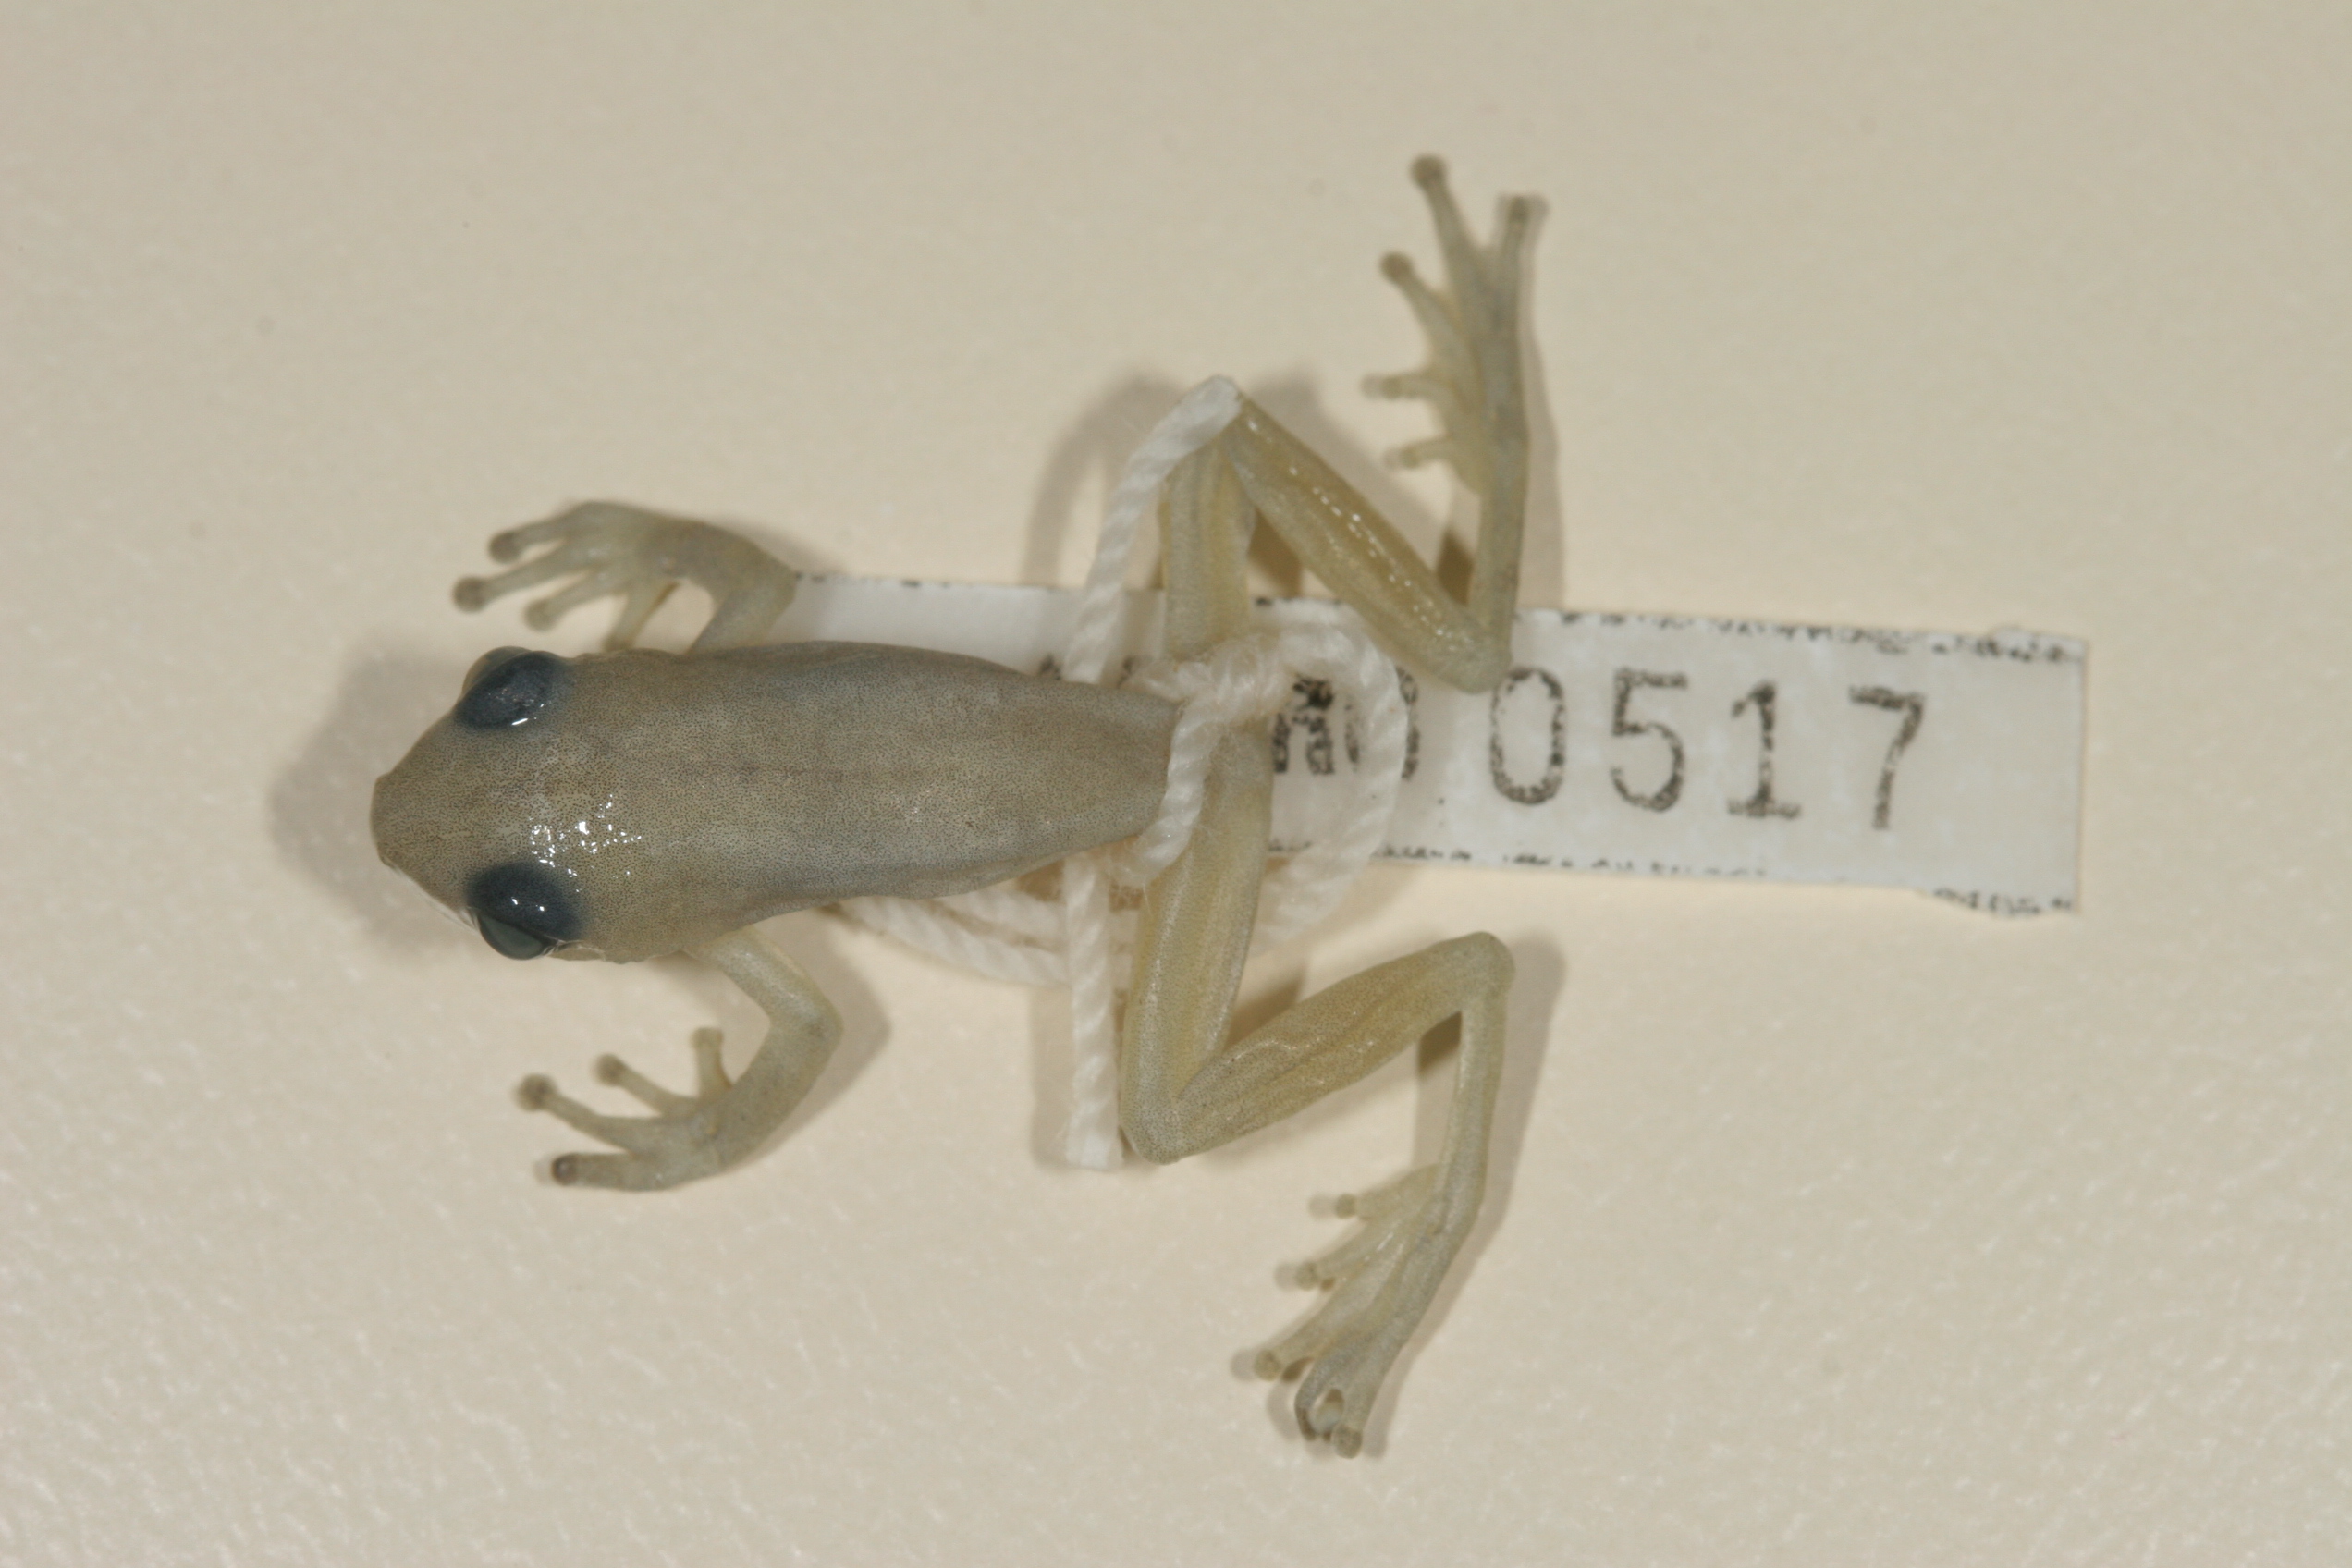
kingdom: Animalia
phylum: Chordata
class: Amphibia
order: Anura
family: Hyperoliidae
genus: Hyperolius
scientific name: Hyperolius pickersgilli
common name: Pickersgill's reed frog
